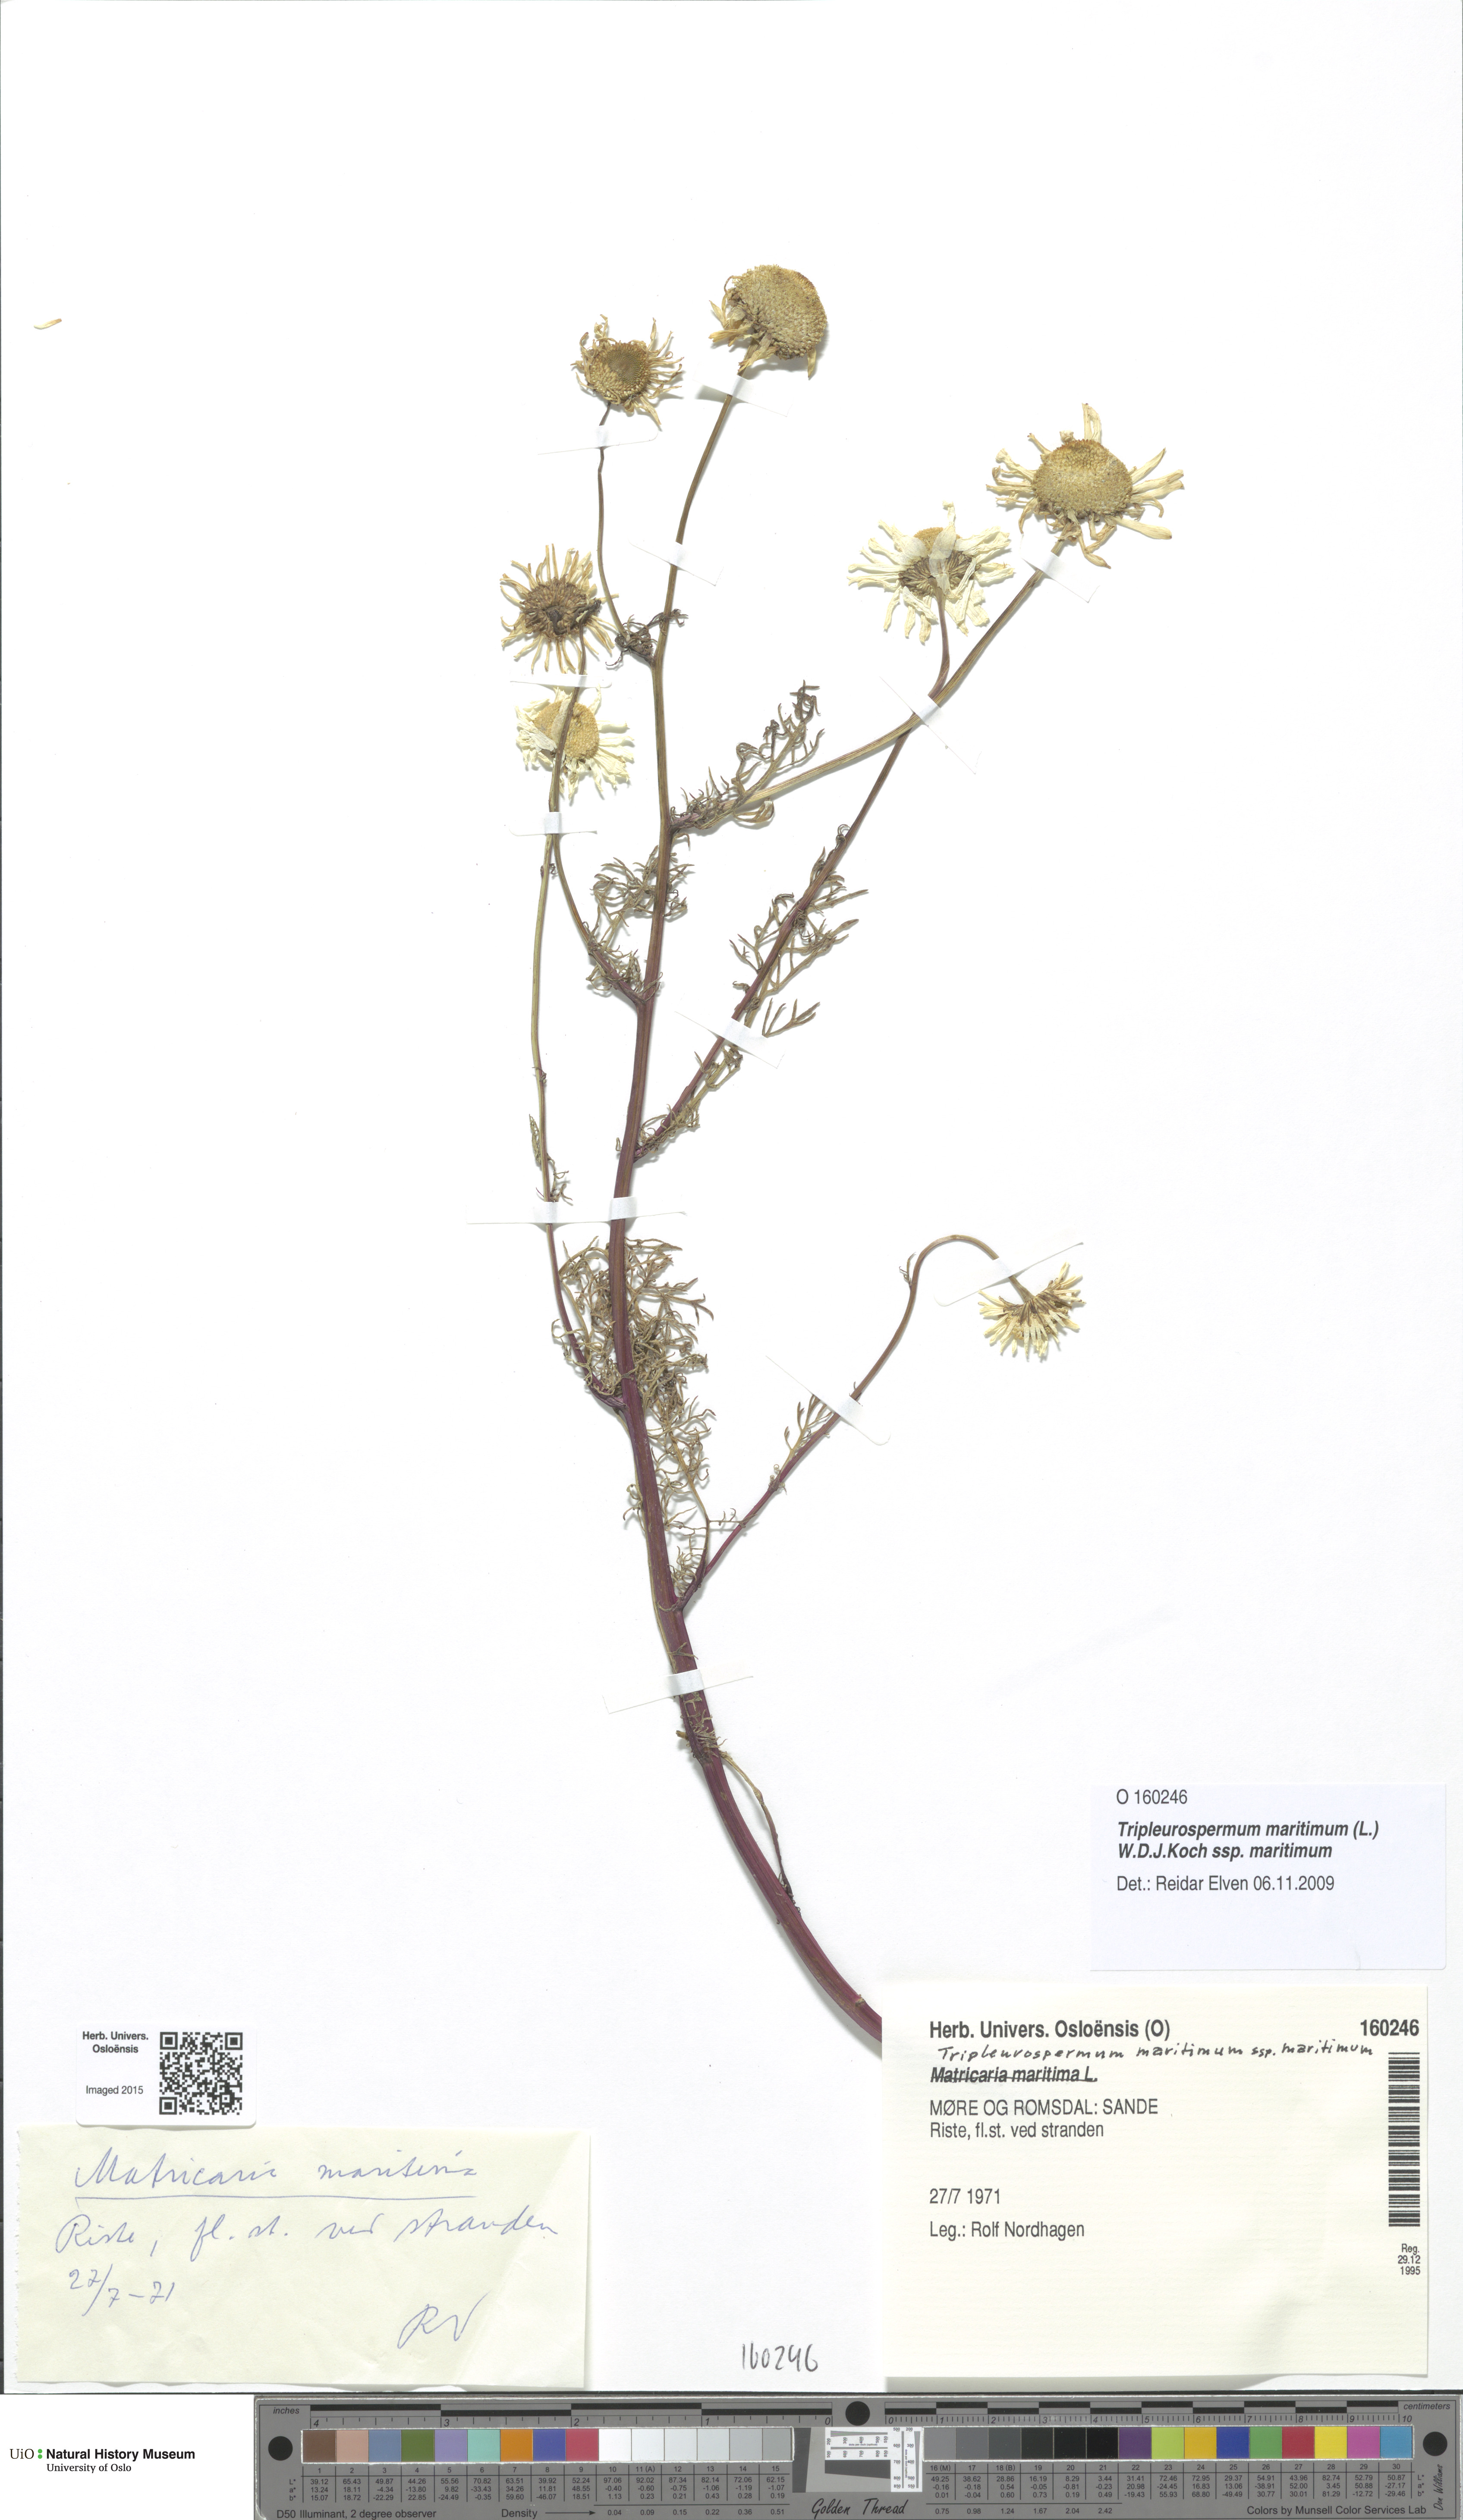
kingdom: Plantae
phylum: Tracheophyta
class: Magnoliopsida
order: Asterales
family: Asteraceae
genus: Tripleurospermum
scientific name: Tripleurospermum maritimum
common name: Sea mayweed
